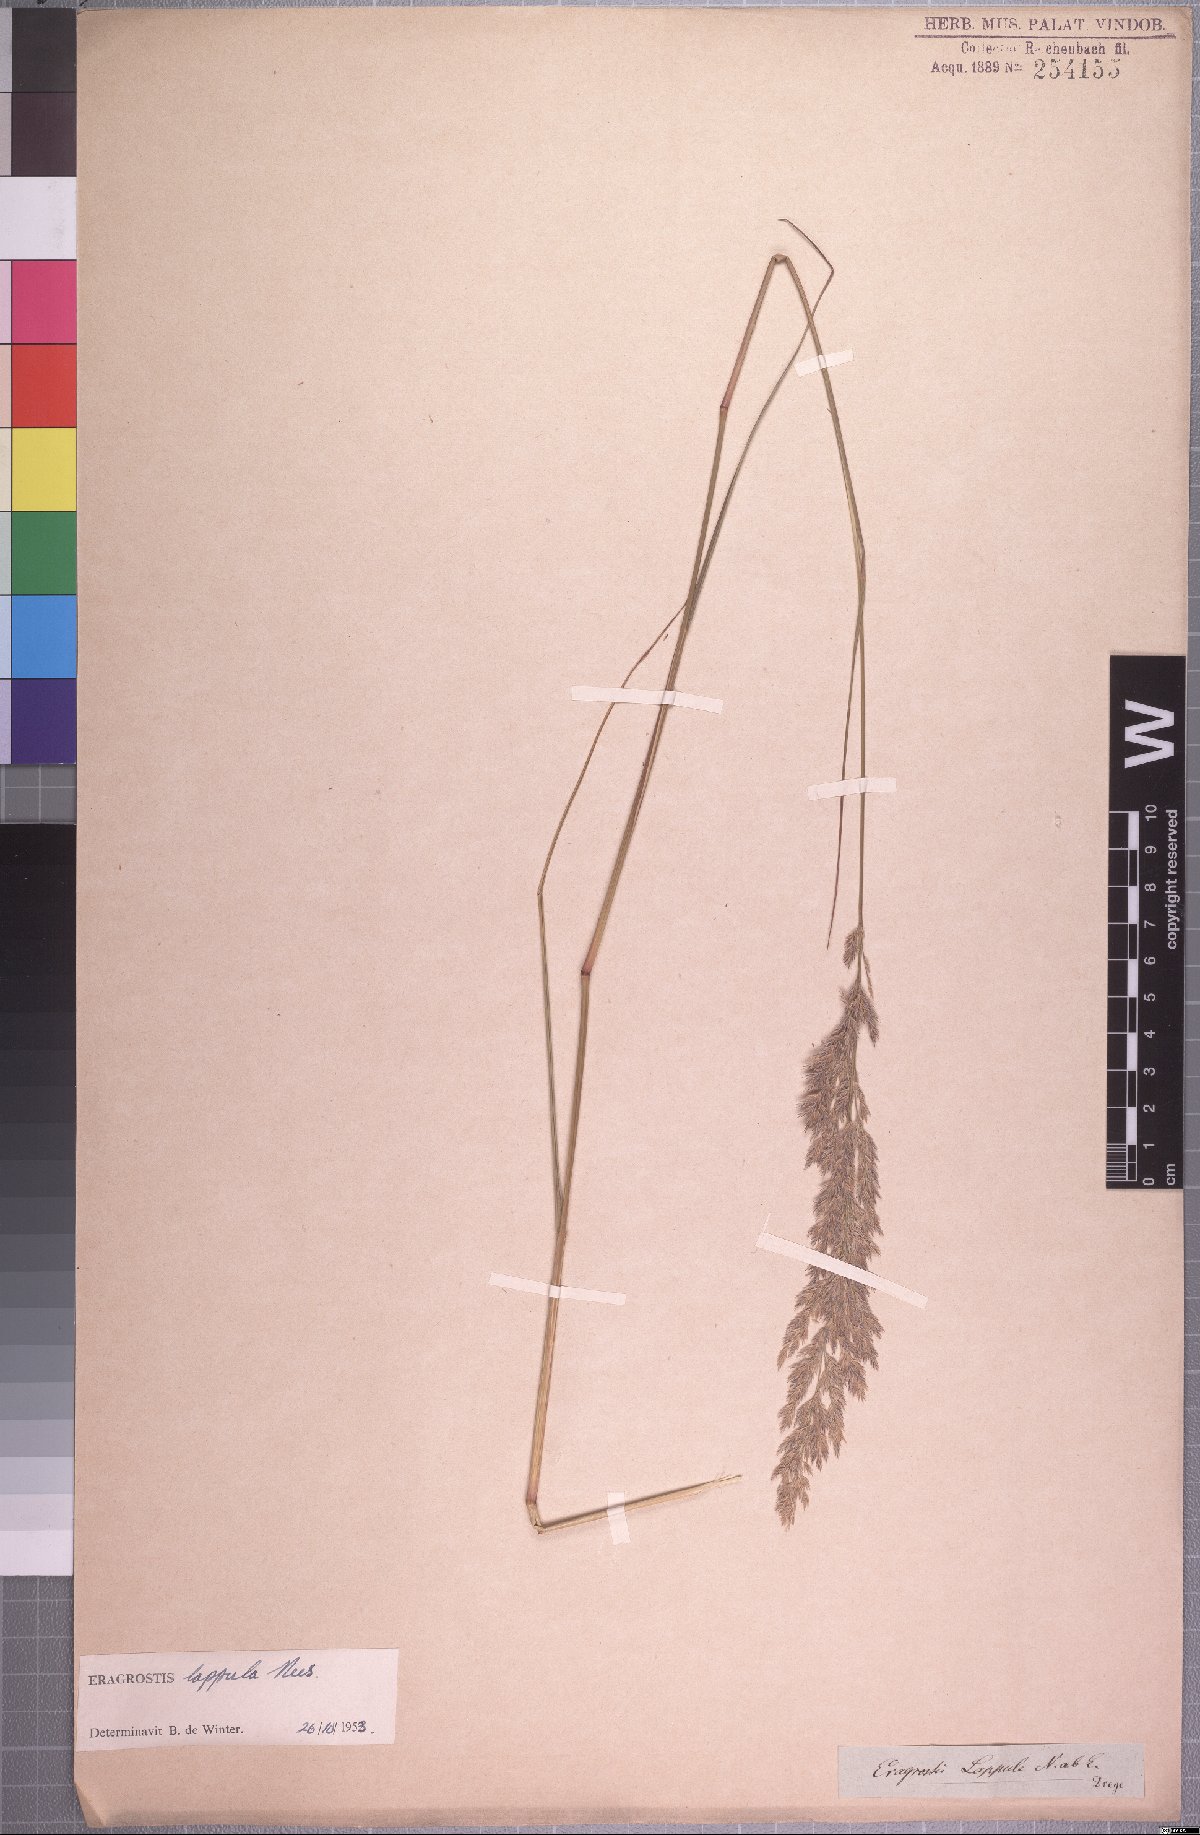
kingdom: Plantae
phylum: Tracheophyta
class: Liliopsida
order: Poales
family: Poaceae
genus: Eragrostis
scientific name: Eragrostis lappula
